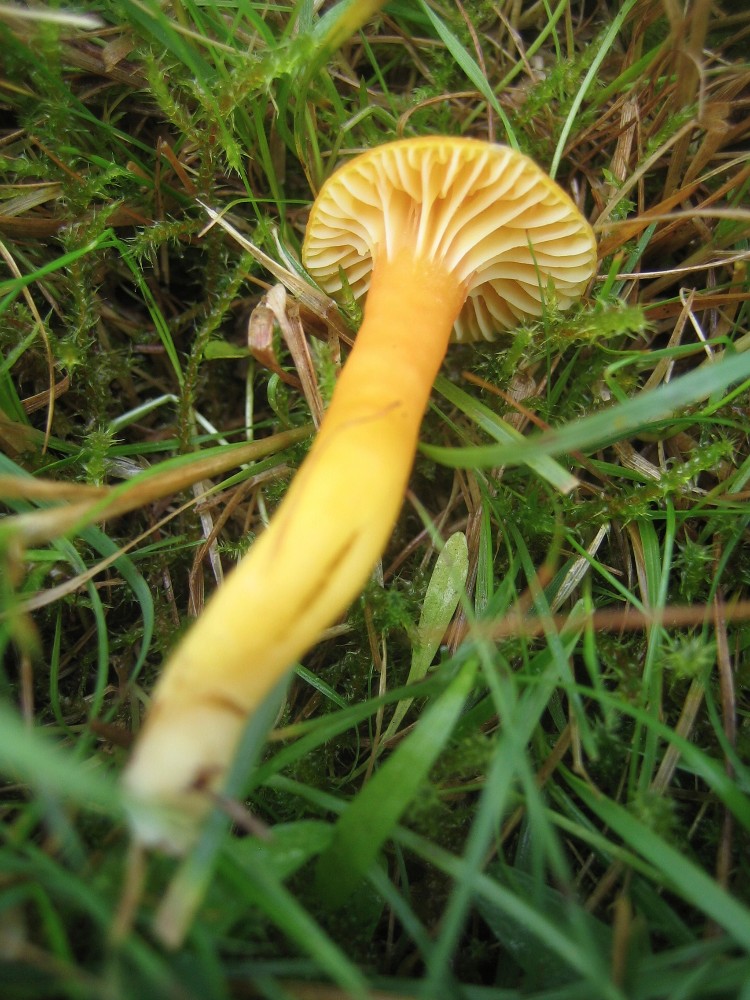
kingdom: Fungi
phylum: Basidiomycota
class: Agaricomycetes
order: Agaricales
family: Hygrophoraceae
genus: Hygrocybe
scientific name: Hygrocybe reidii
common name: honning-vokshat
